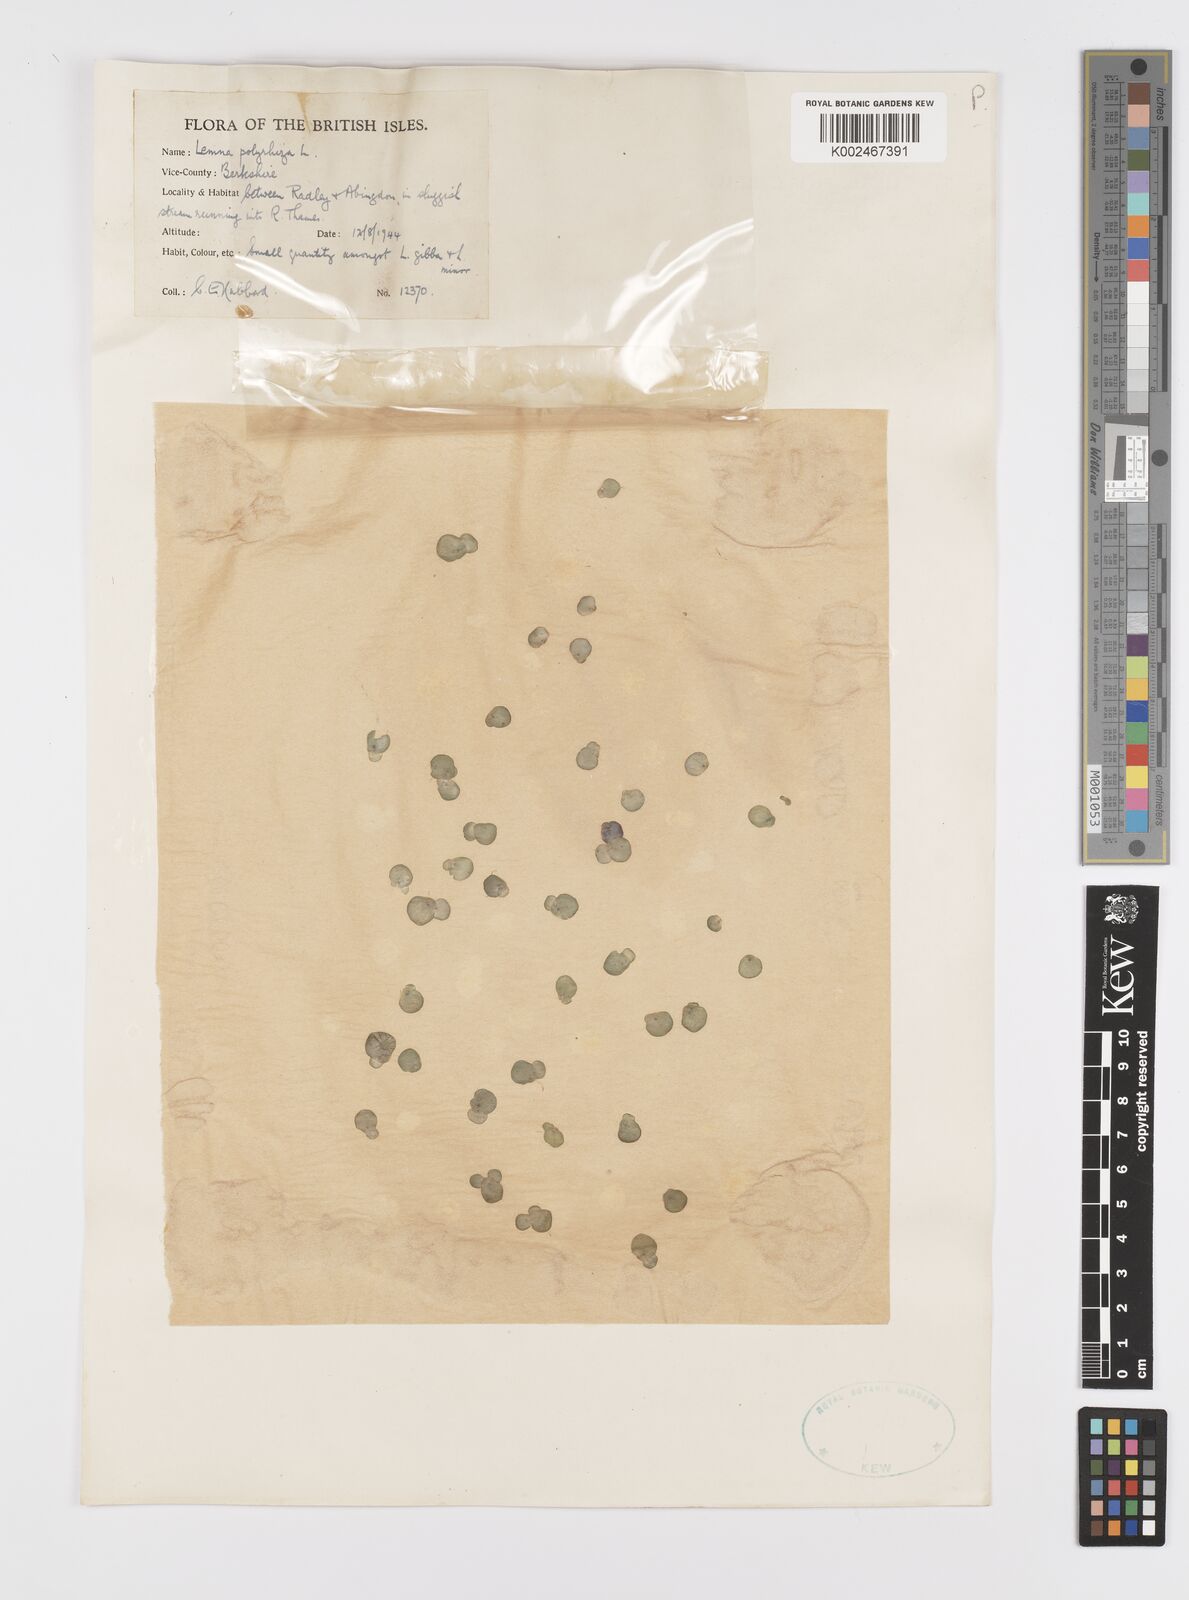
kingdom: Plantae
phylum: Tracheophyta
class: Liliopsida
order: Alismatales
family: Araceae
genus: Spirodela
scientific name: Spirodela polyrhiza
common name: Great duckweed
